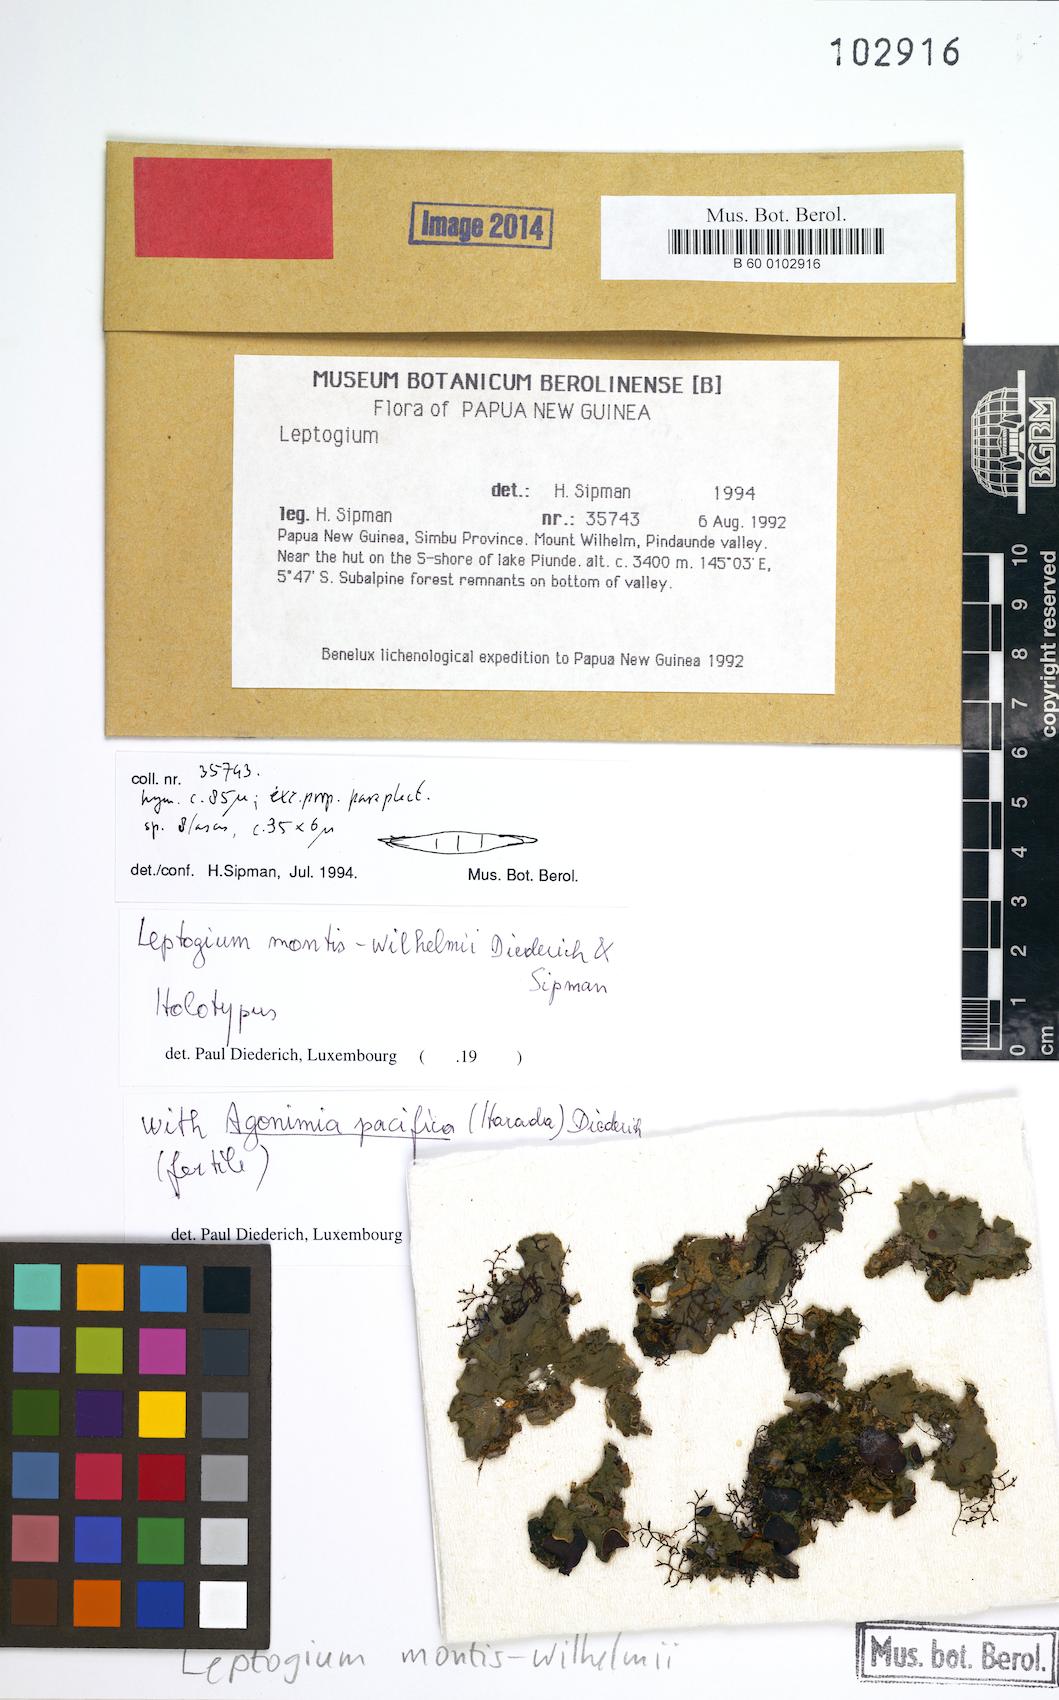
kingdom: Fungi
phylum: Ascomycota
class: Lecanoromycetes
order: Peltigerales
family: Collemataceae
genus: Leptogium
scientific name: Leptogium
